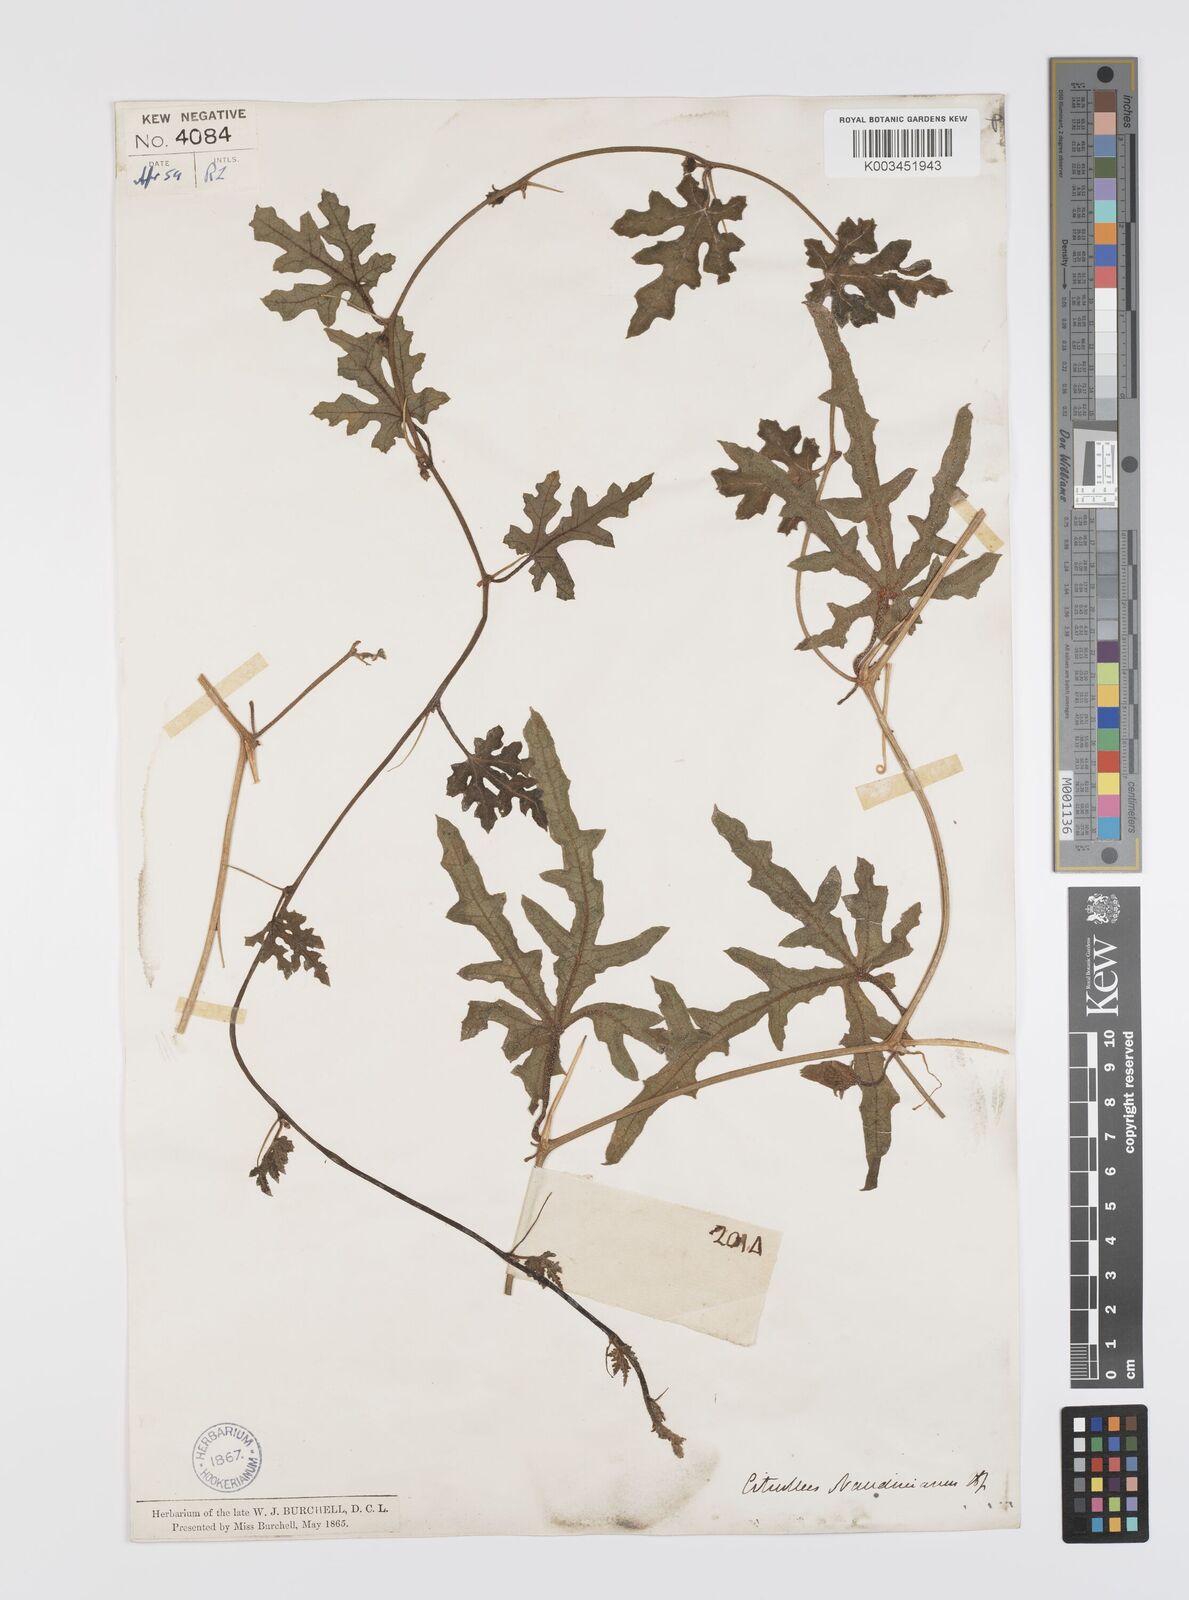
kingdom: Plantae
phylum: Tracheophyta
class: Magnoliopsida
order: Cucurbitales
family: Cucurbitaceae
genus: Citrullus
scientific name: Citrullus naudinianus
